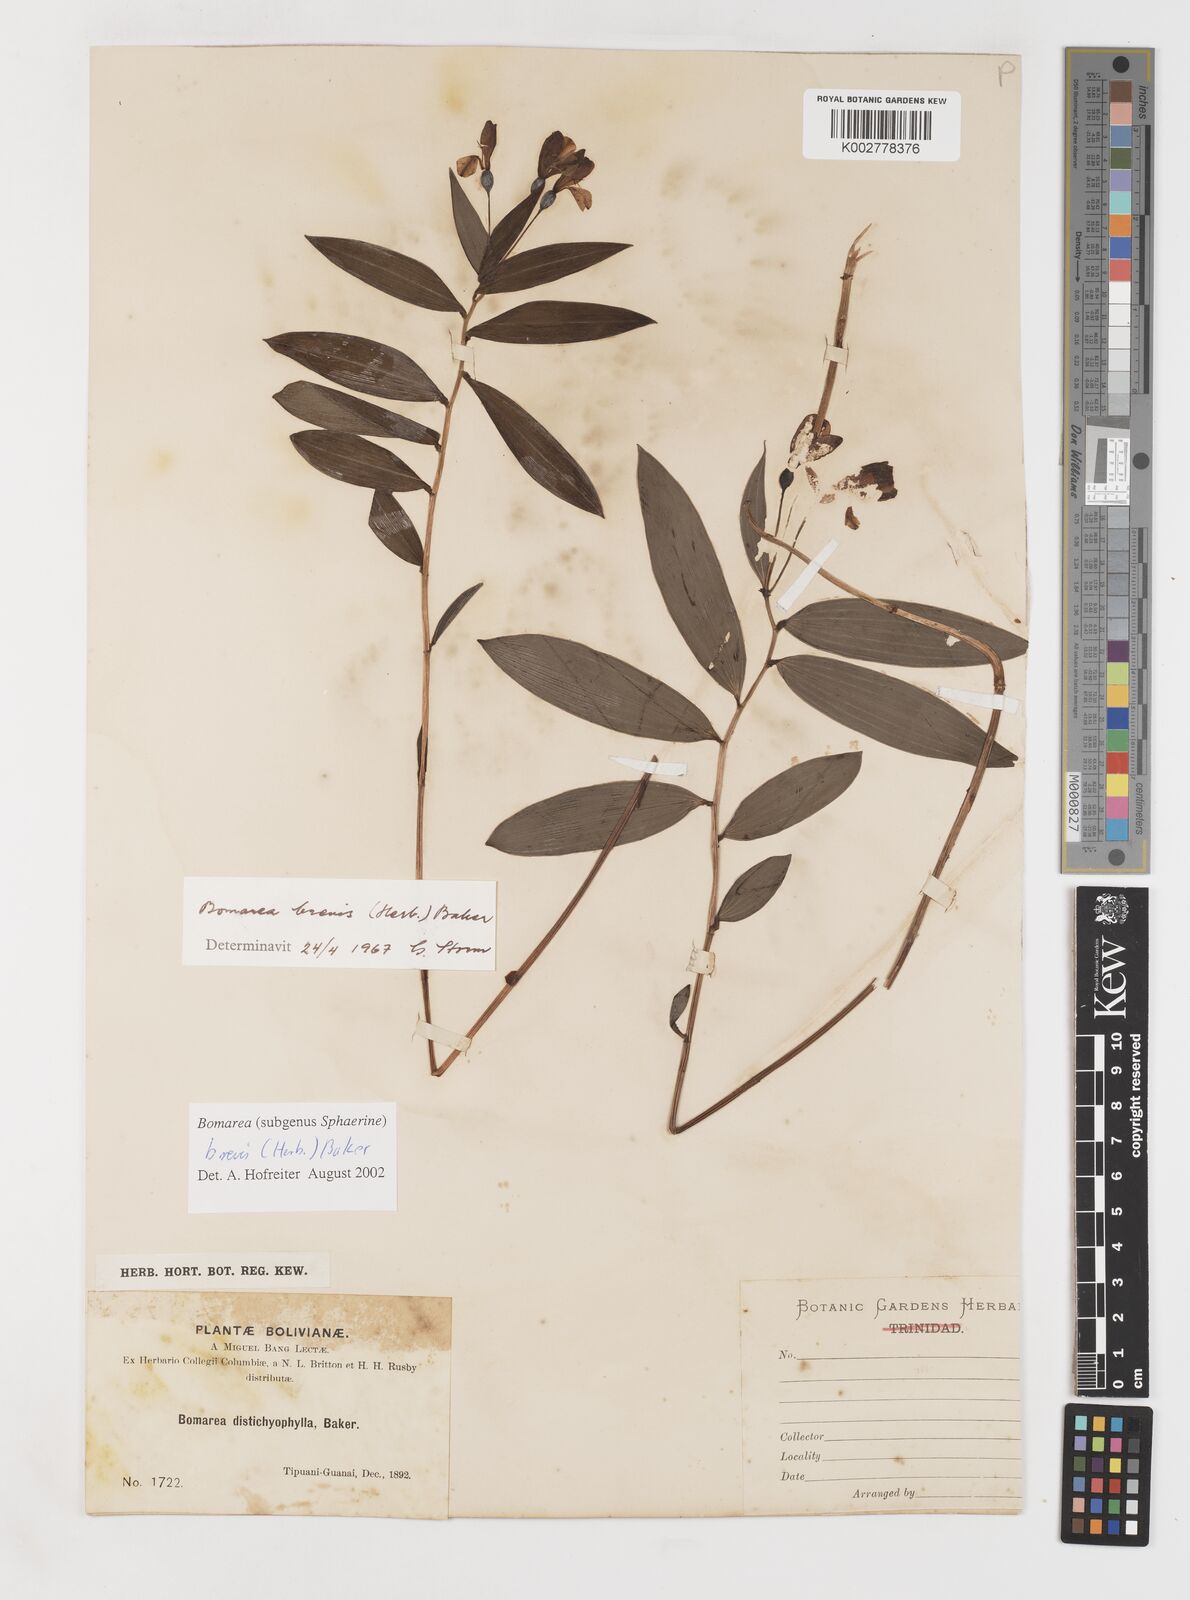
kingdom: Plantae
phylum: Tracheophyta
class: Liliopsida
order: Liliales
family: Alstroemeriaceae
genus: Bomarea
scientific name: Bomarea brevis
